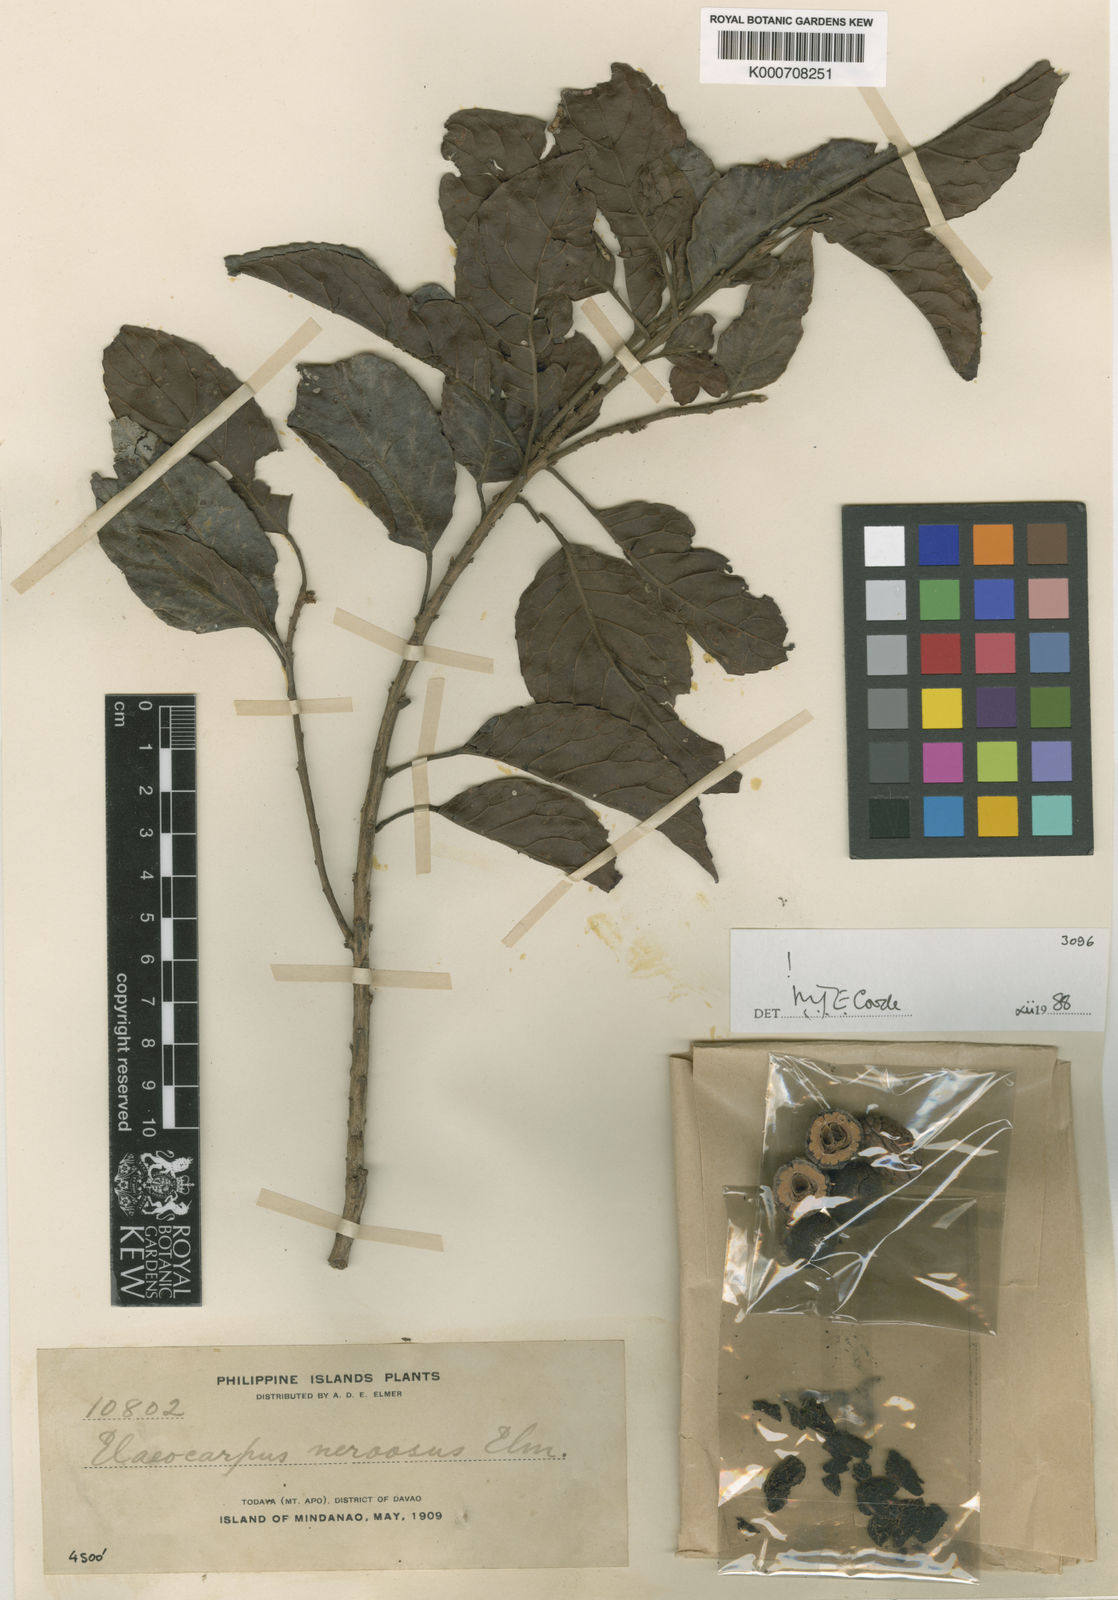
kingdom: Plantae
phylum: Tracheophyta
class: Magnoliopsida
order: Oxalidales
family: Elaeocarpaceae
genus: Elaeocarpus
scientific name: Elaeocarpus nervosus
